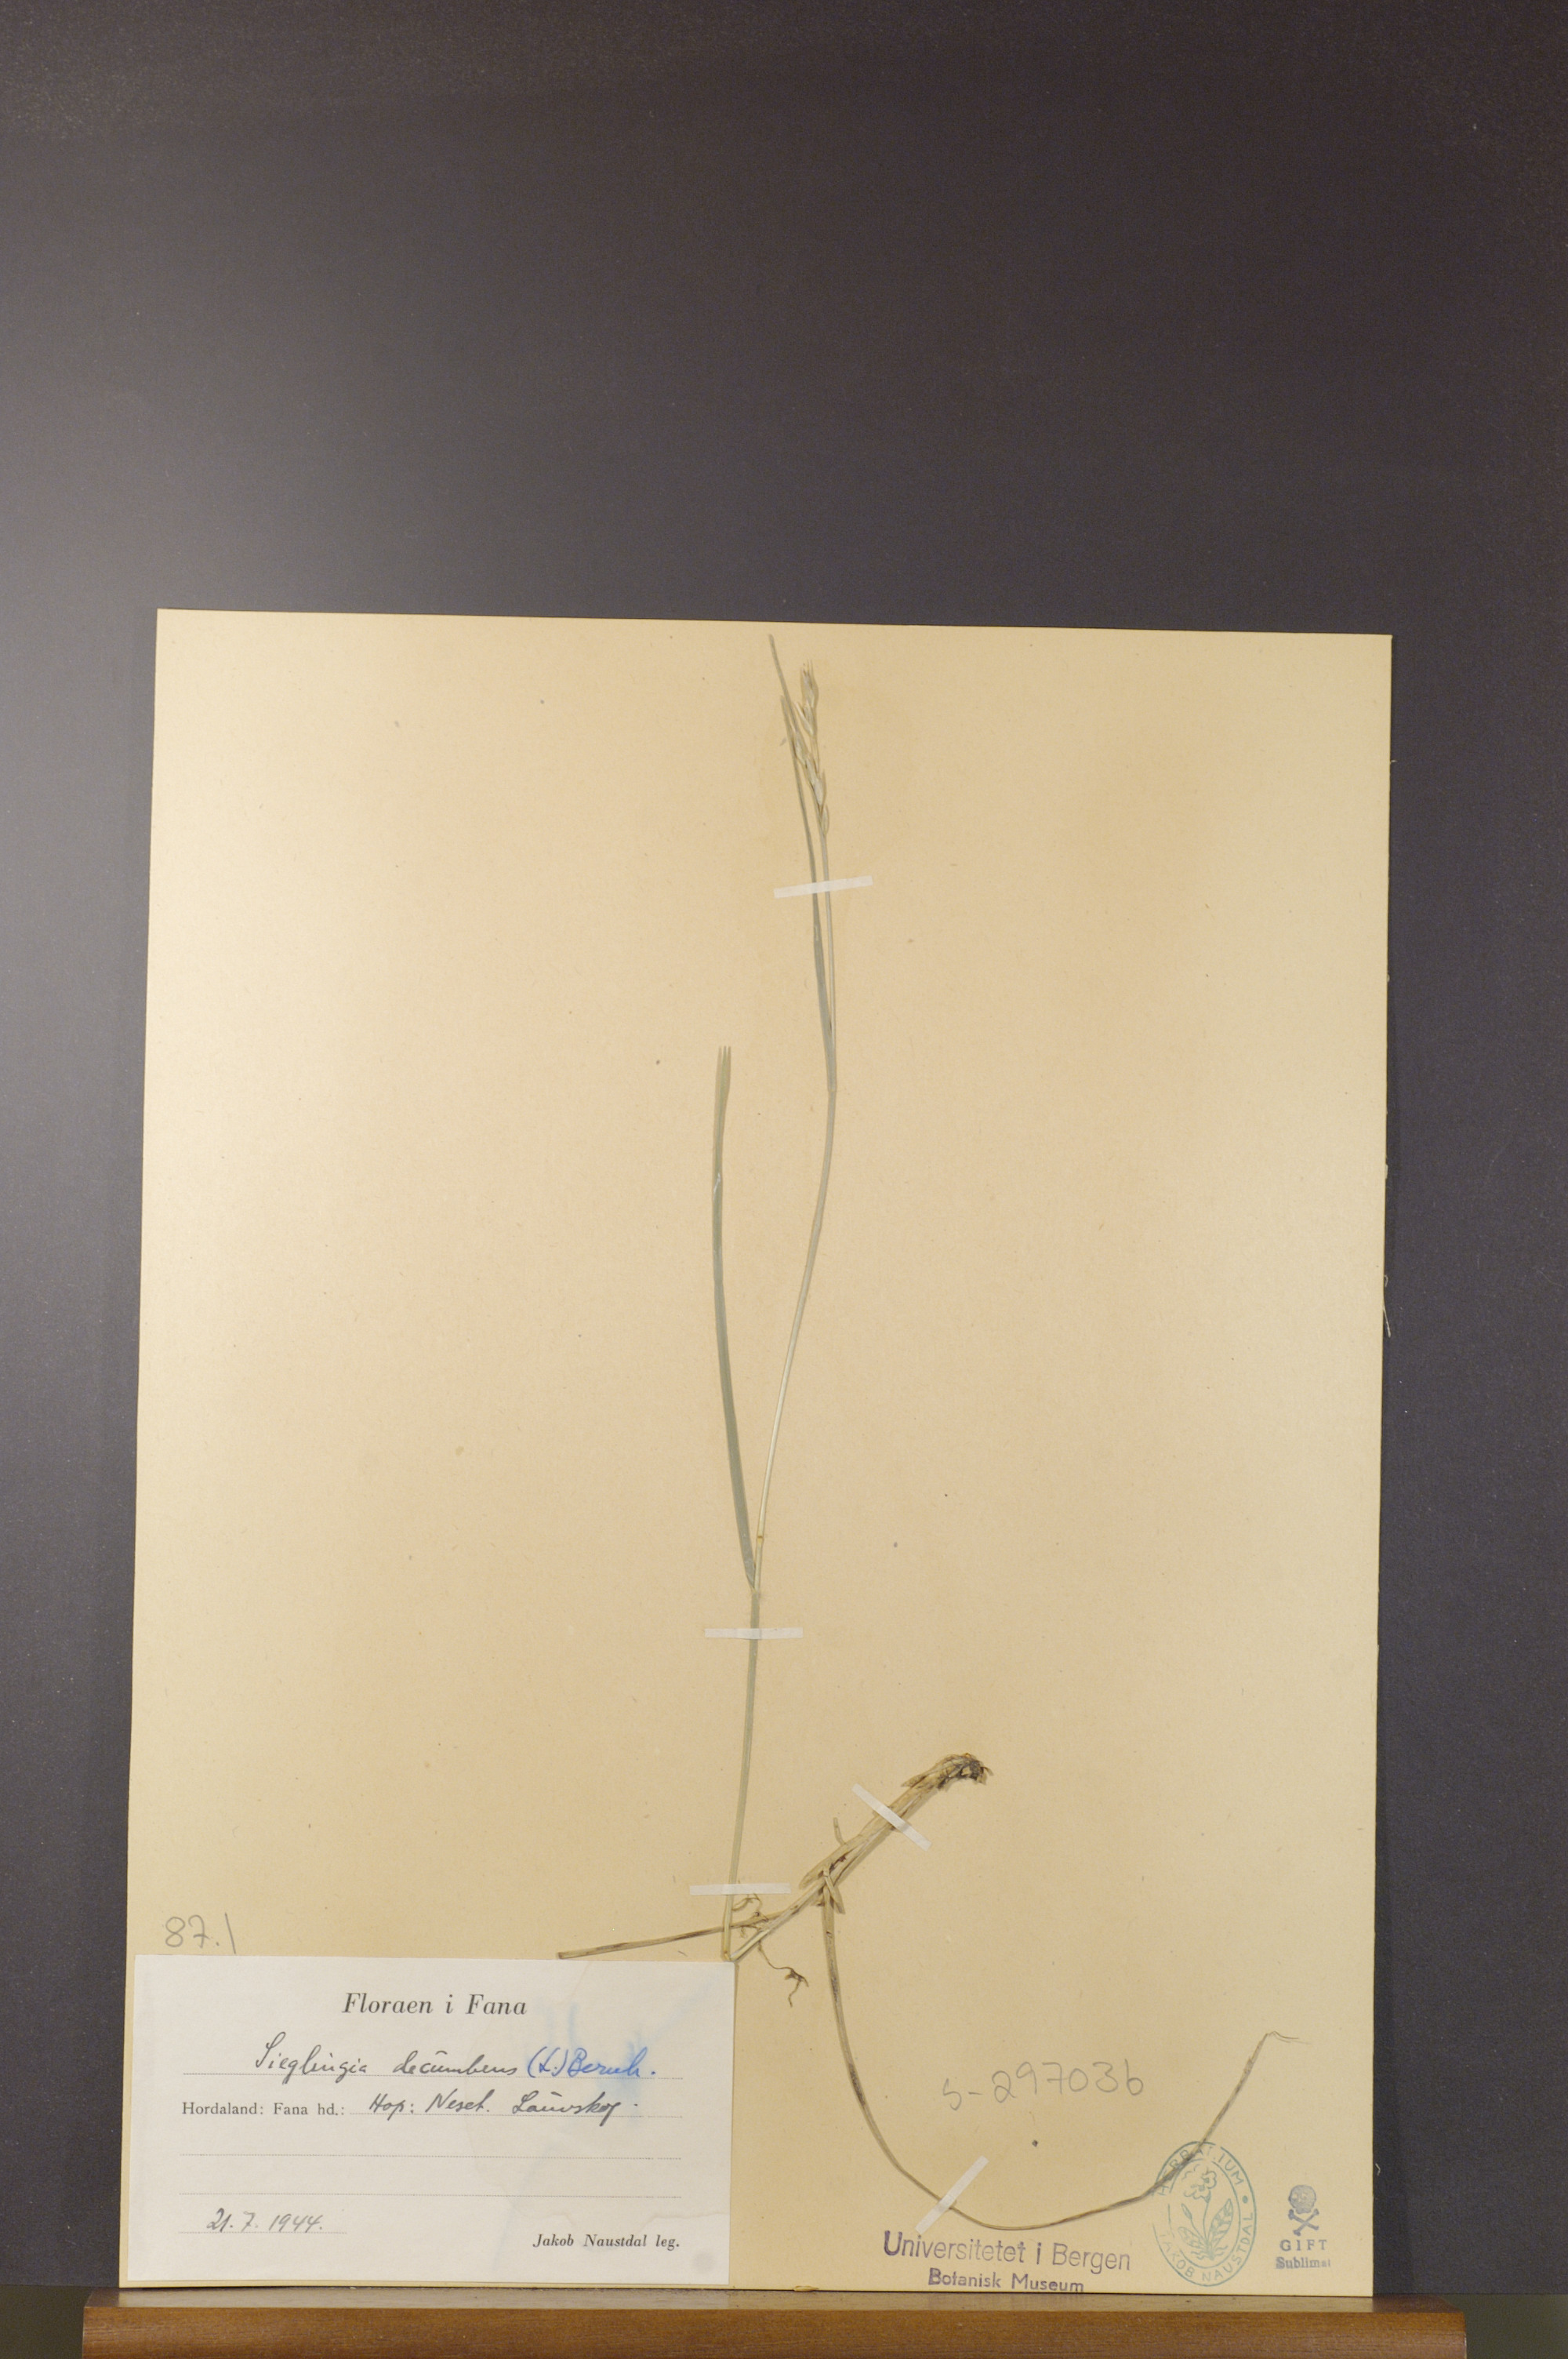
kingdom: Plantae
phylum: Tracheophyta
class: Liliopsida
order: Poales
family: Poaceae
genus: Danthonia
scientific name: Danthonia decumbens
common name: Common heathgrass
